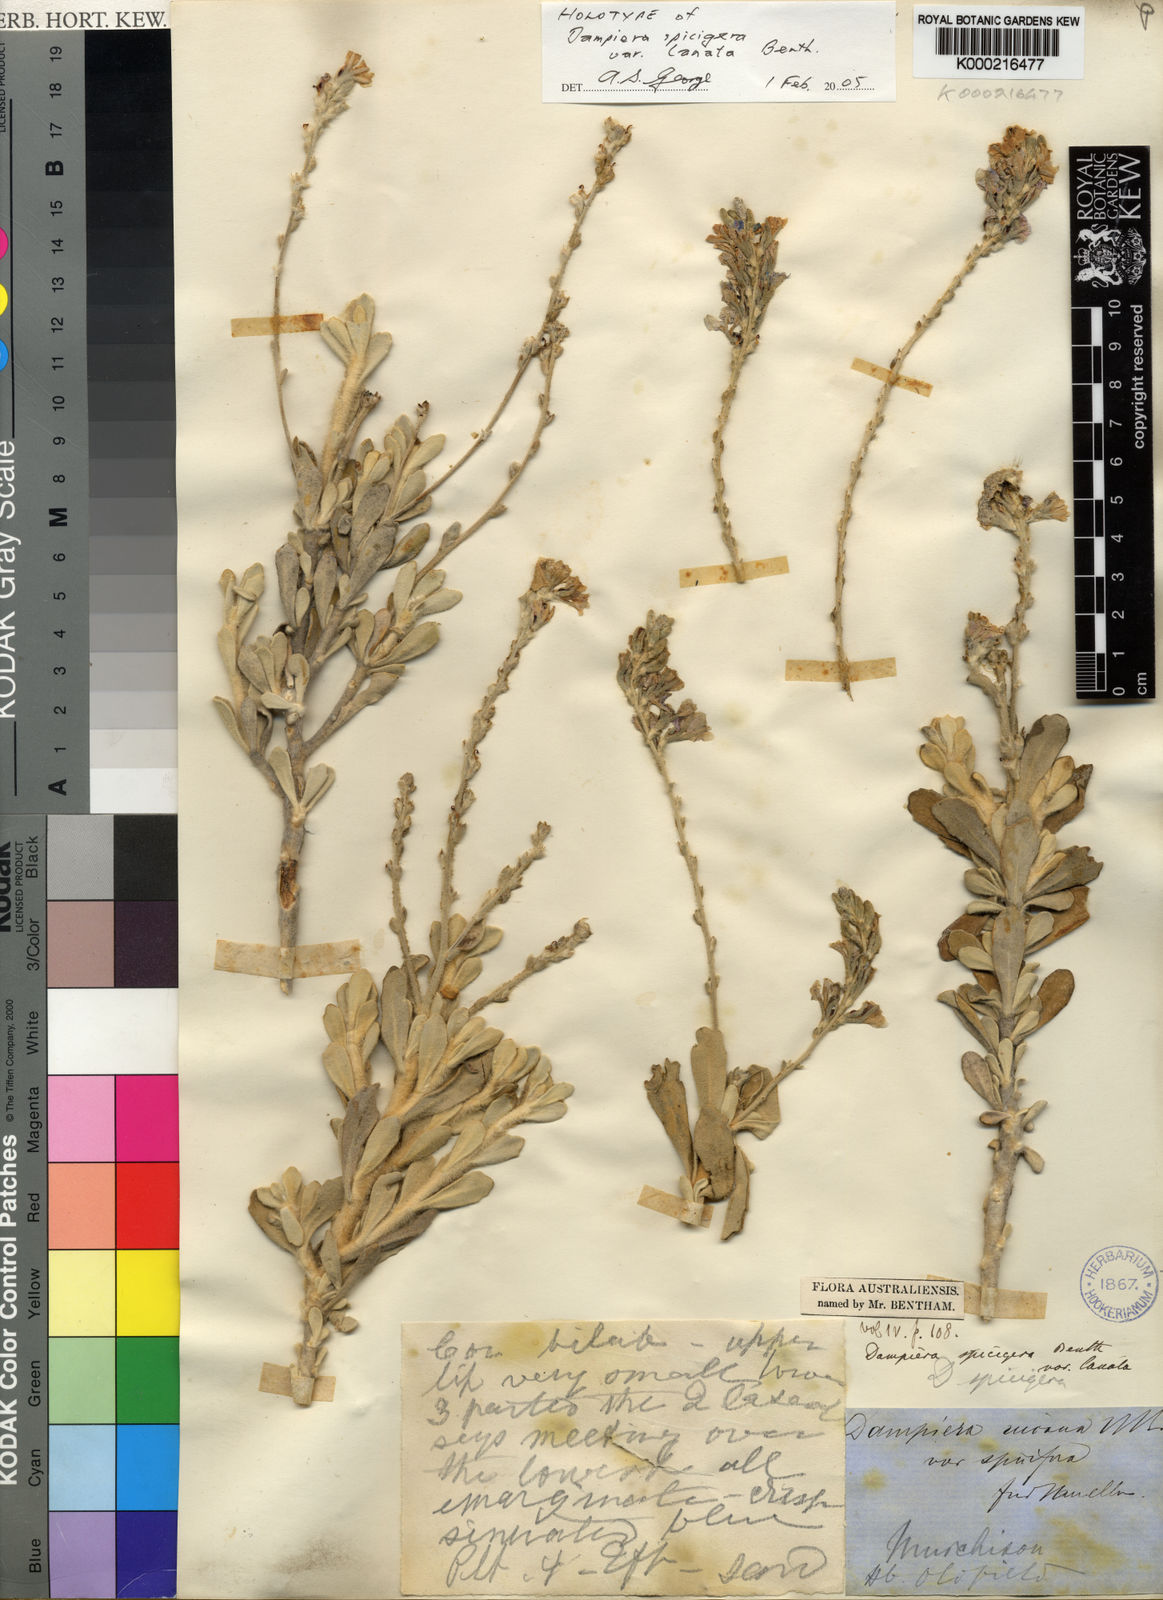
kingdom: Plantae
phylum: Tracheophyta
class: Magnoliopsida
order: Asterales
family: Goodeniaceae
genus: Dampiera
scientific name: Dampiera spicigera
